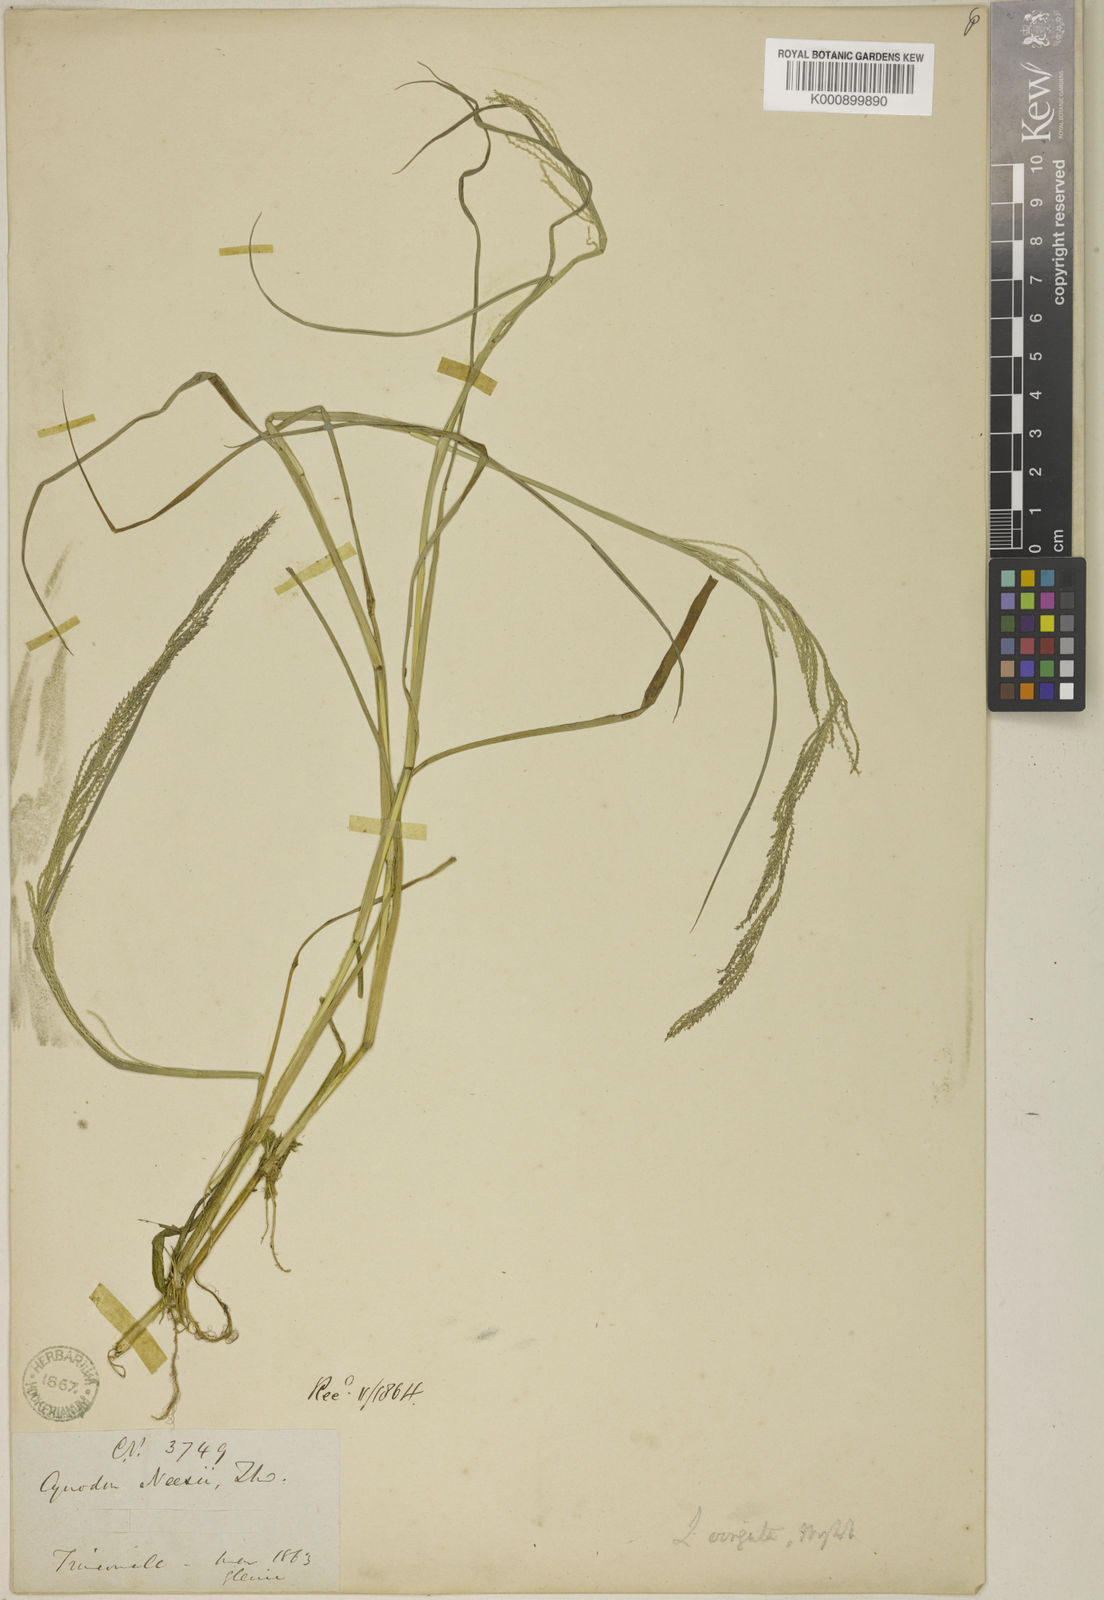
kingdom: Plantae
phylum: Tracheophyta
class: Liliopsida
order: Poales
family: Poaceae
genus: Dinebra
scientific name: Dinebra polystachyos
